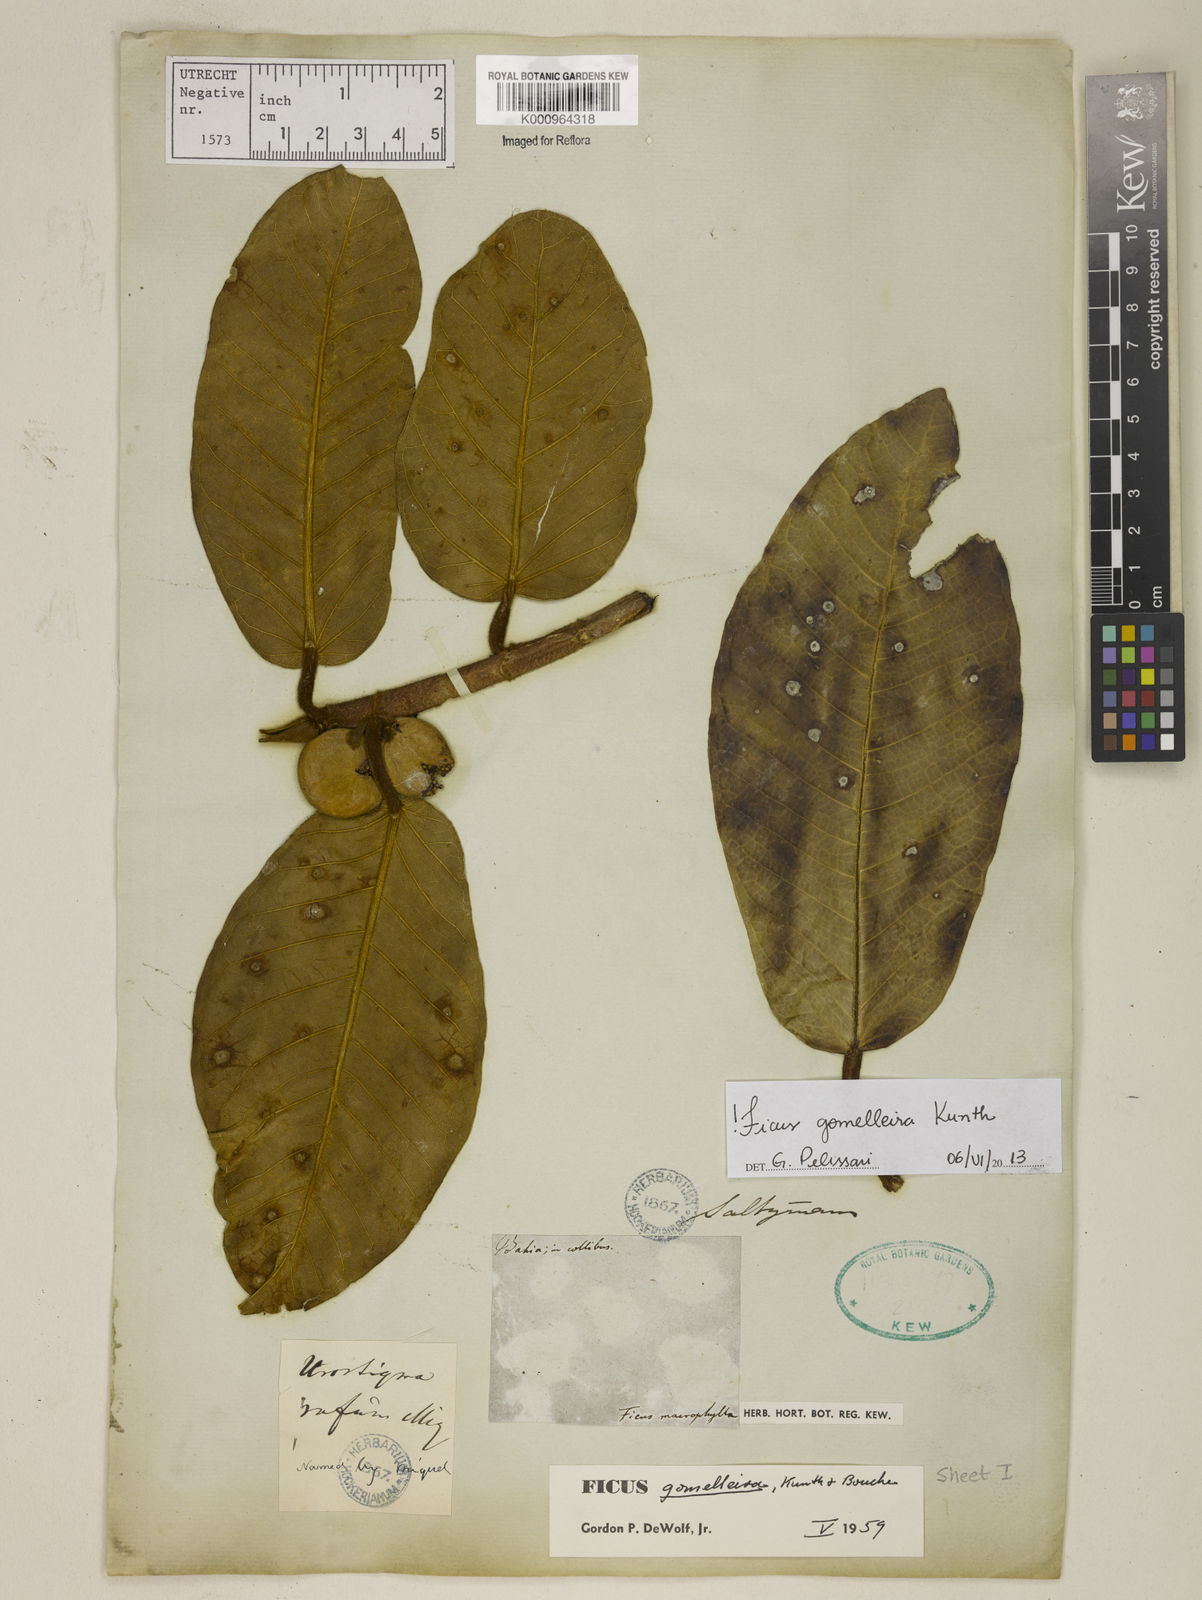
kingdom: Plantae
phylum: Tracheophyta
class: Magnoliopsida
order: Rosales
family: Moraceae
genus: Ficus
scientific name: Ficus gomelleira
